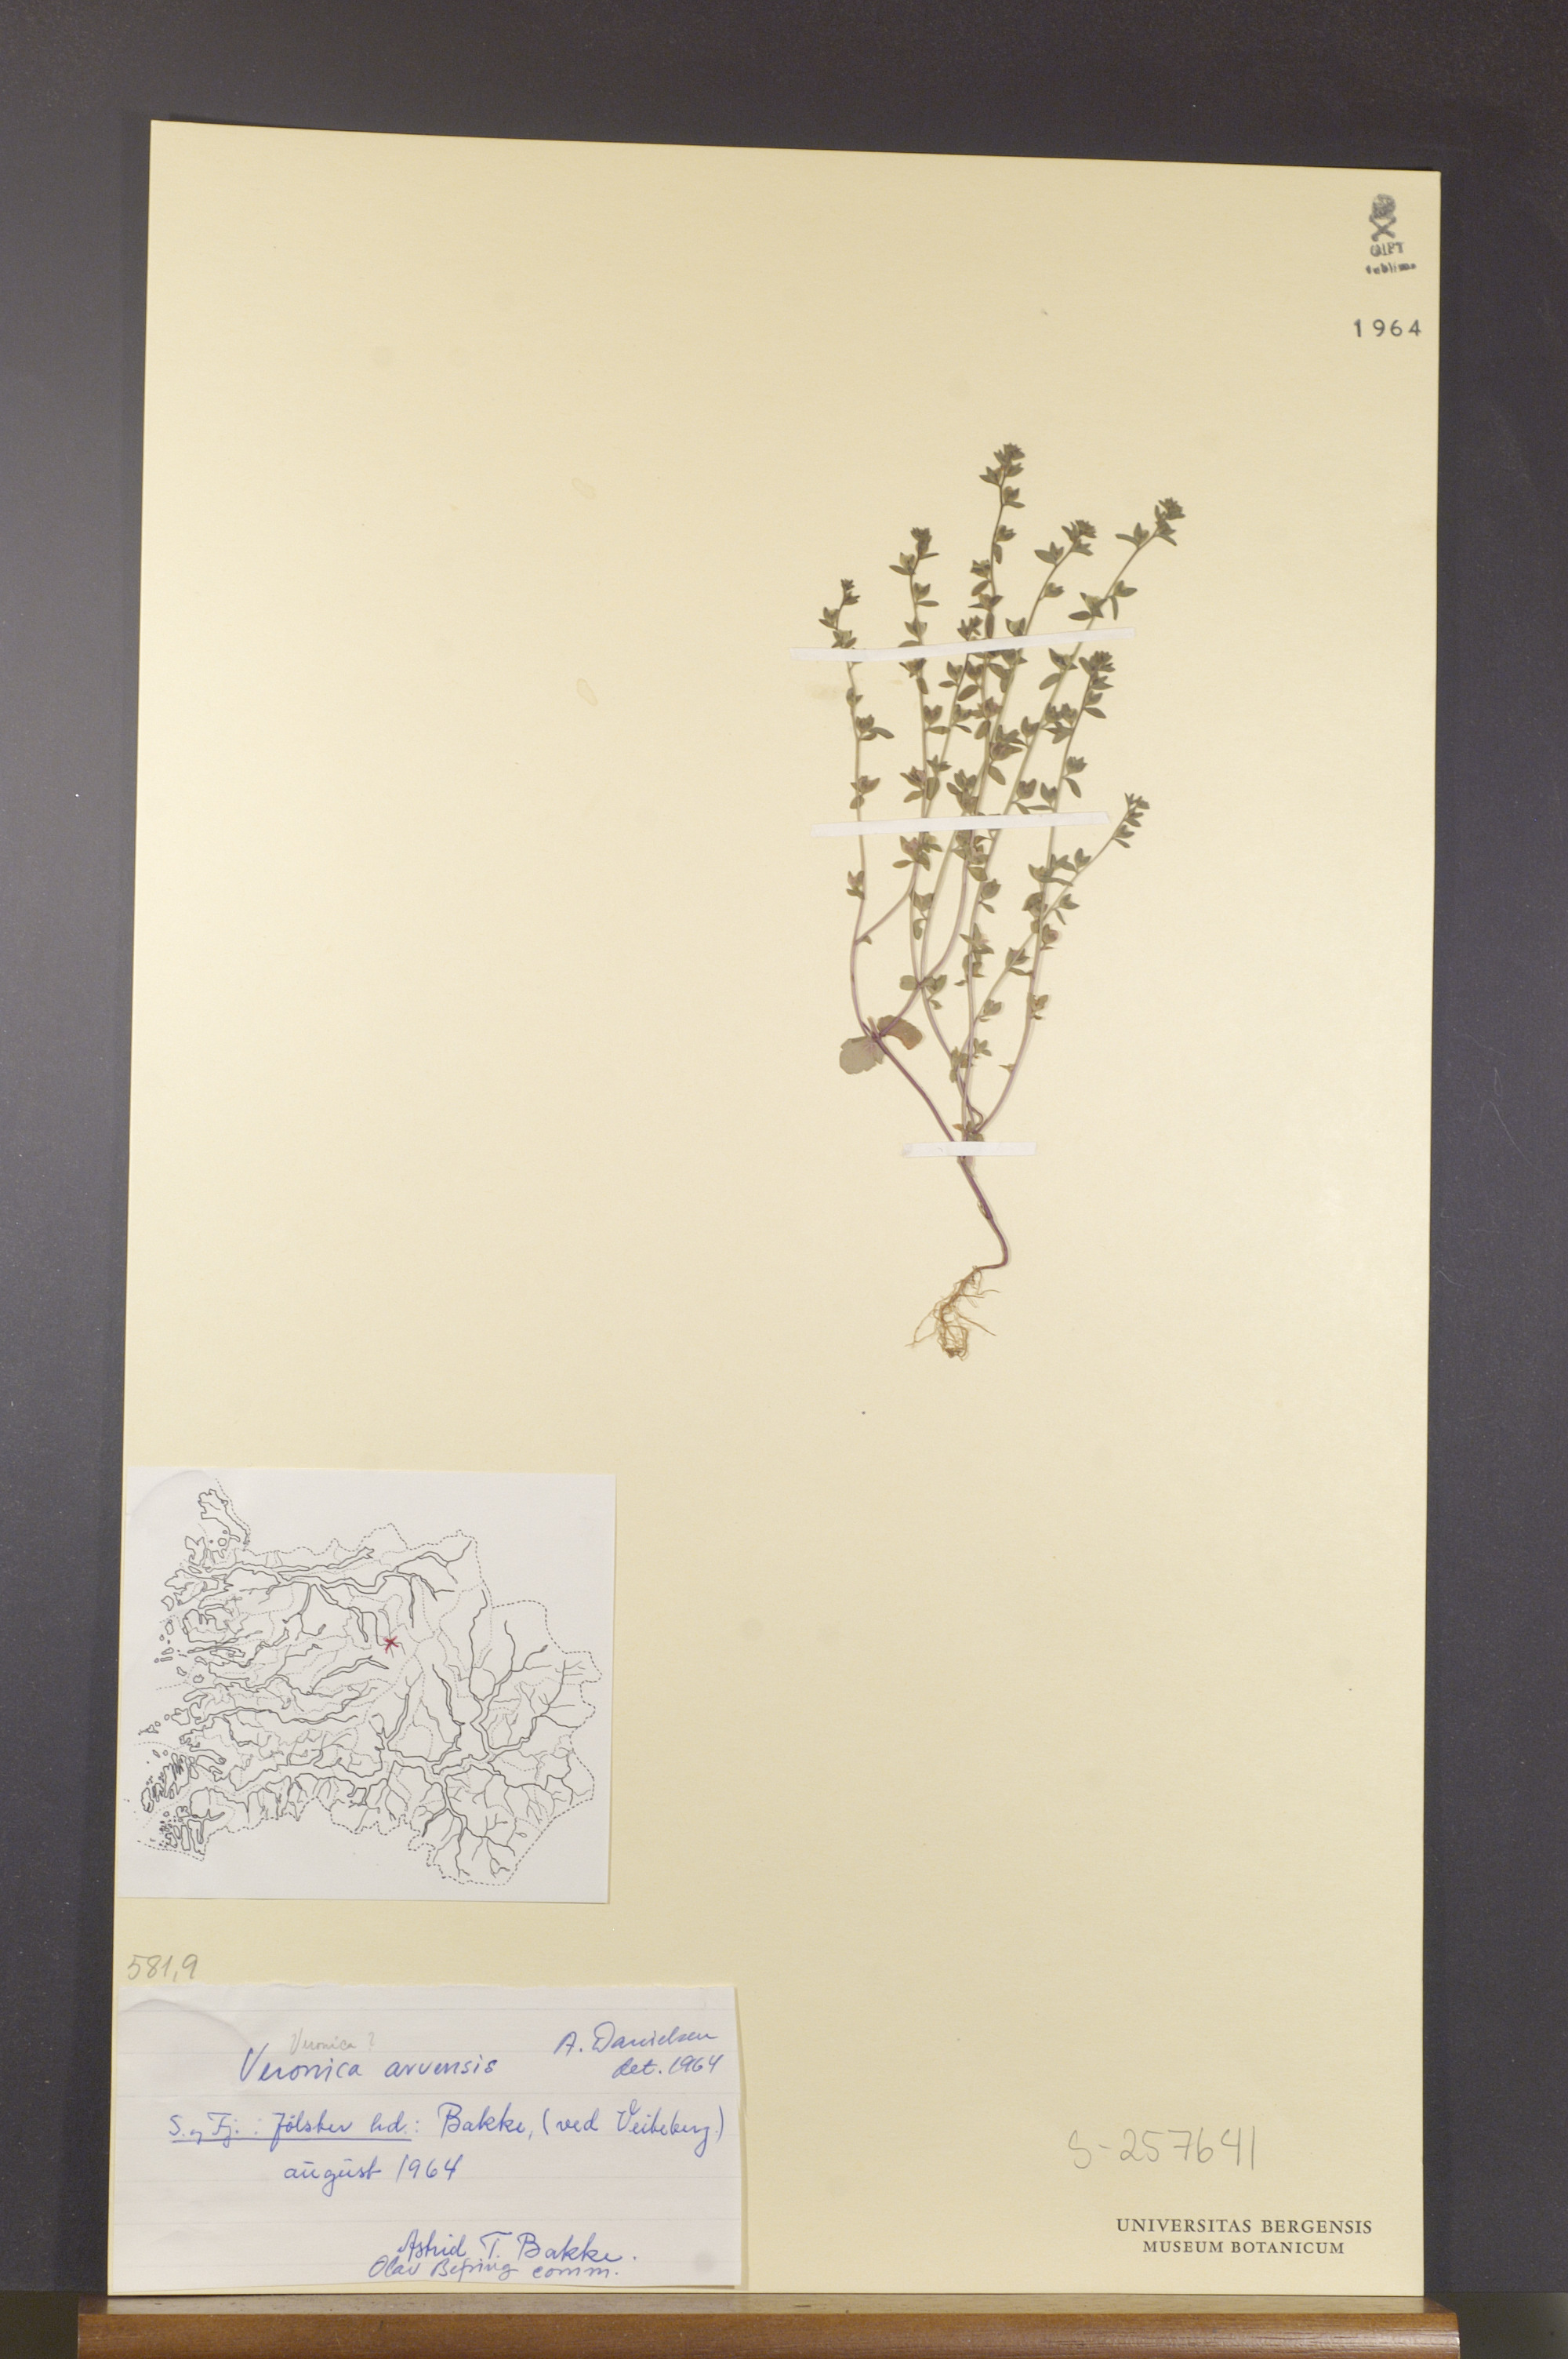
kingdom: Plantae
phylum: Tracheophyta
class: Magnoliopsida
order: Lamiales
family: Plantaginaceae
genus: Veronica
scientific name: Veronica arvensis
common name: Corn speedwell
